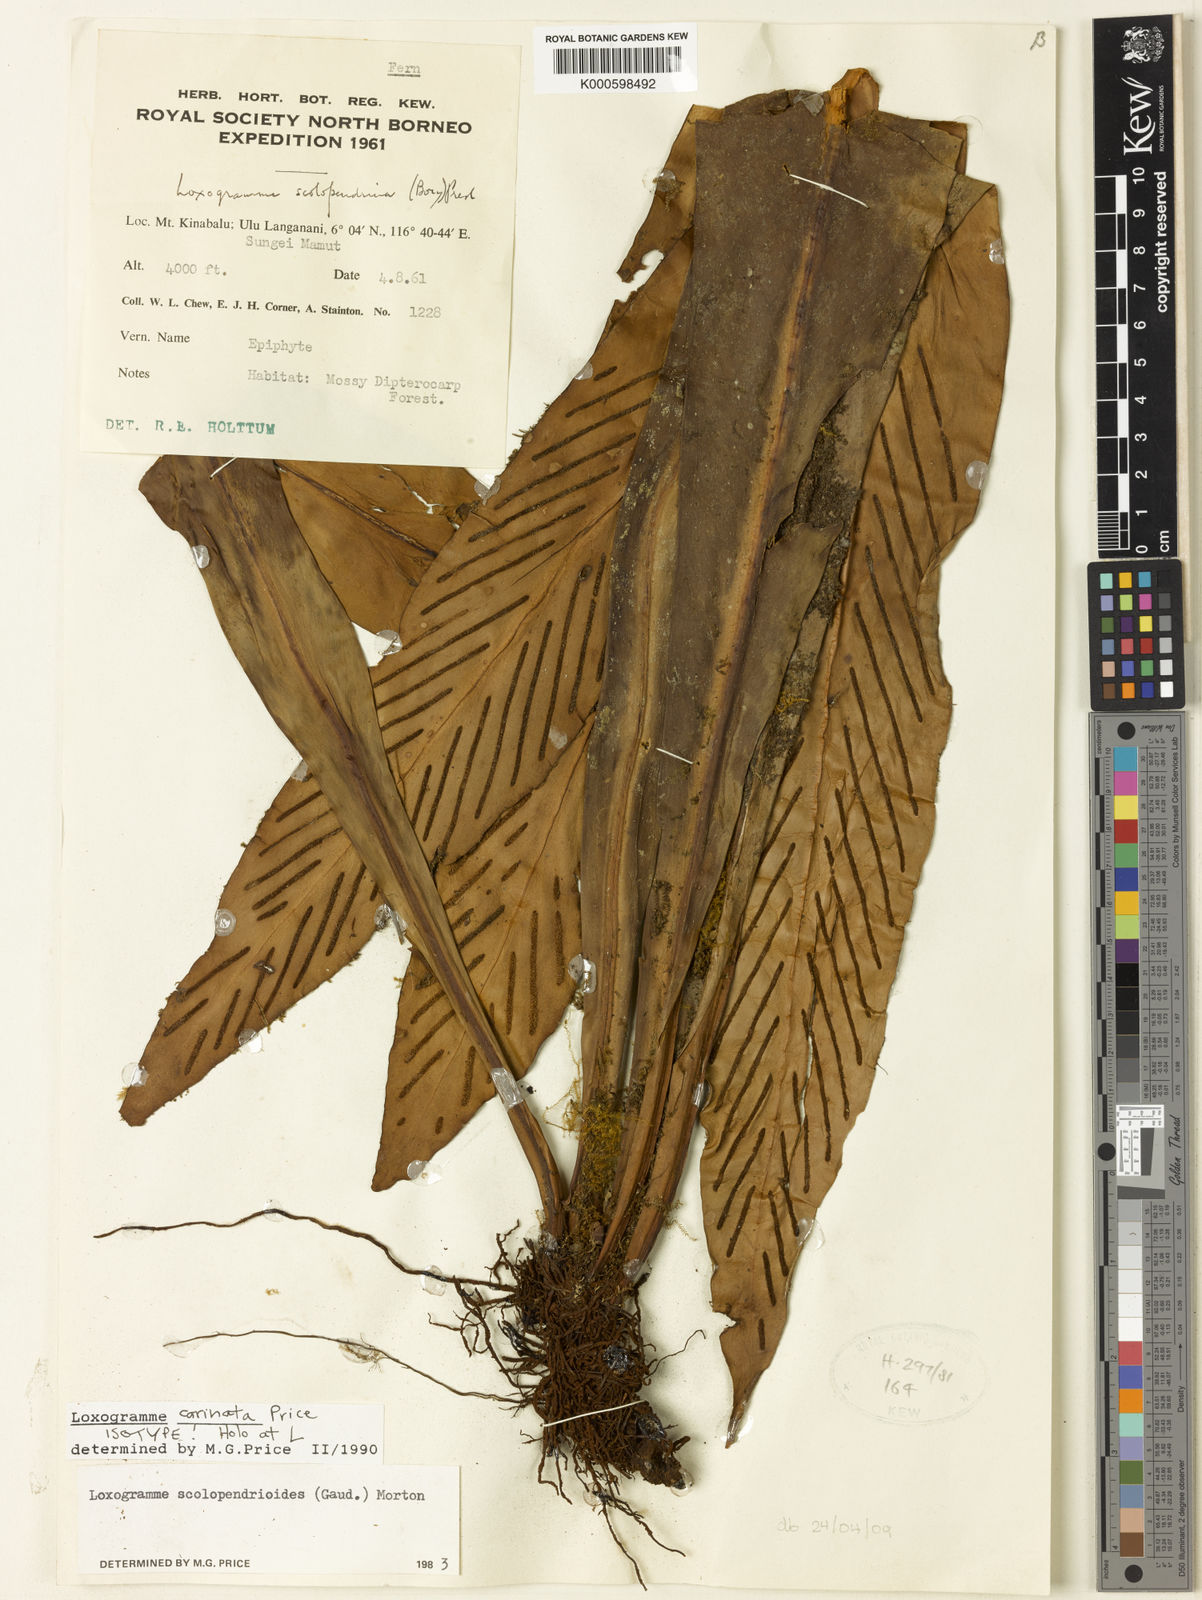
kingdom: Plantae
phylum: Tracheophyta
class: Polypodiopsida
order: Polypodiales
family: Polypodiaceae
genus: Loxogramme
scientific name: Loxogramme carinata
